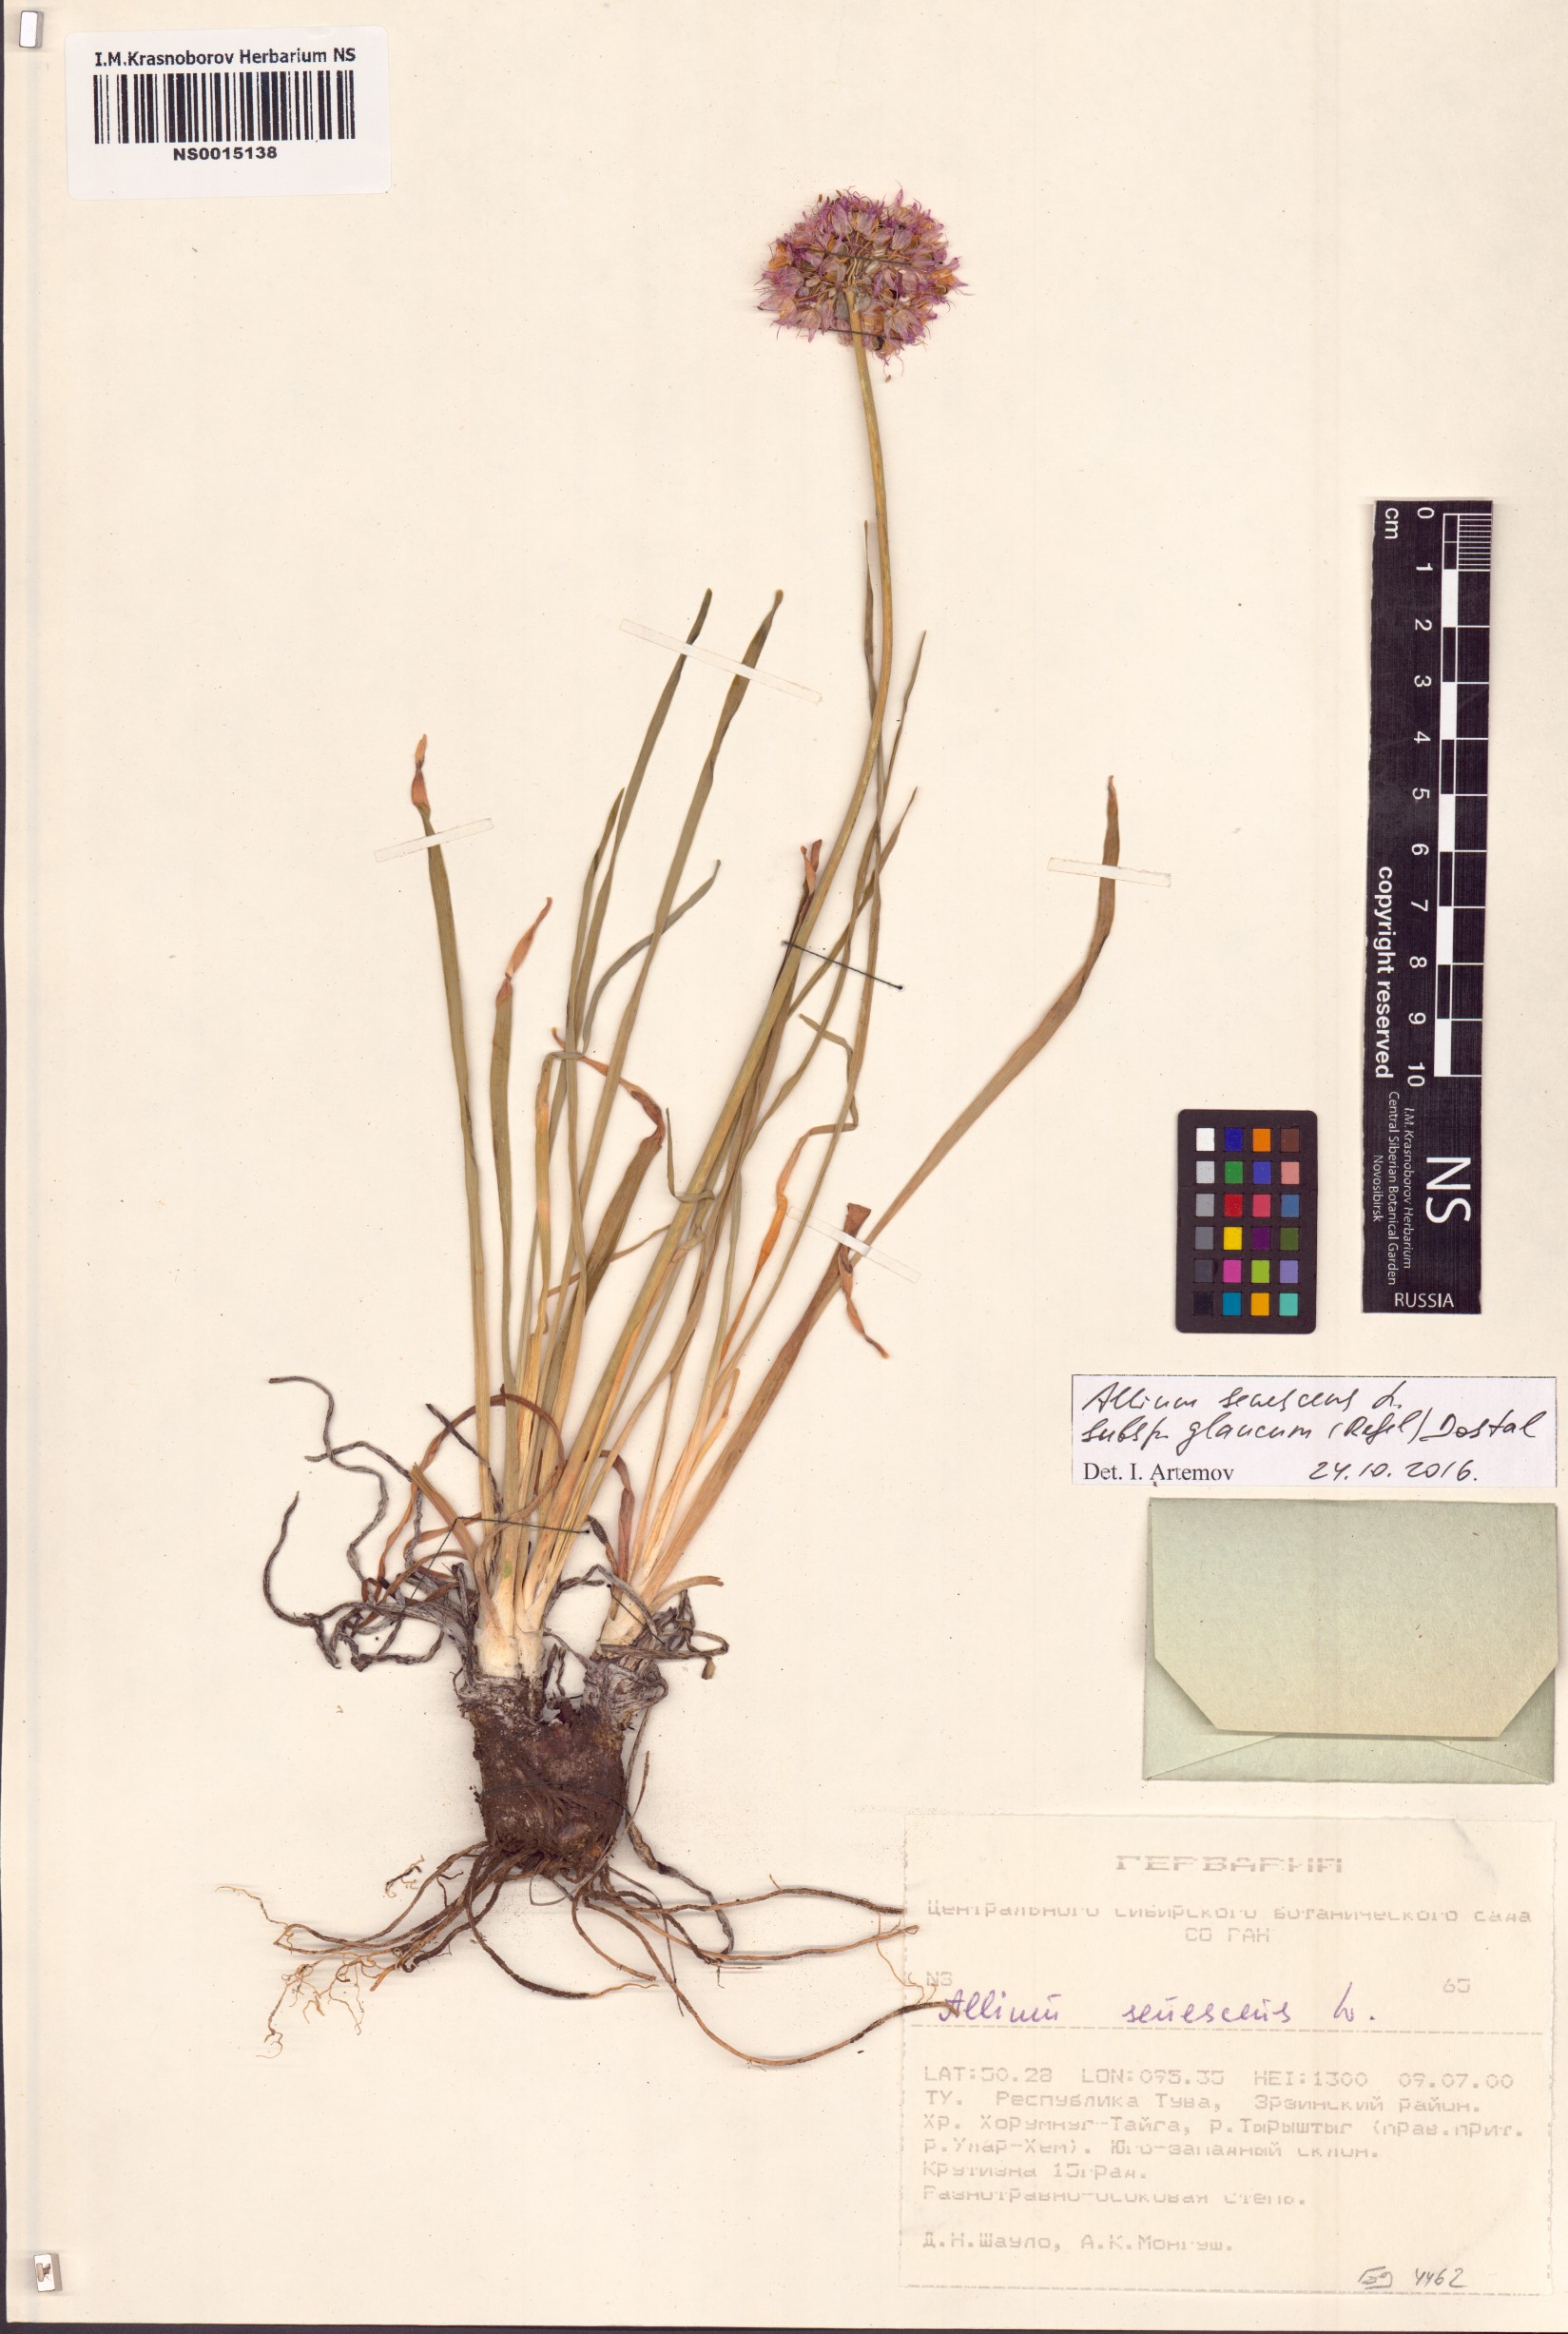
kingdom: Plantae
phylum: Tracheophyta
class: Liliopsida
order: Asparagales
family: Amaryllidaceae
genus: Allium
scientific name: Allium senescens
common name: German garlic
